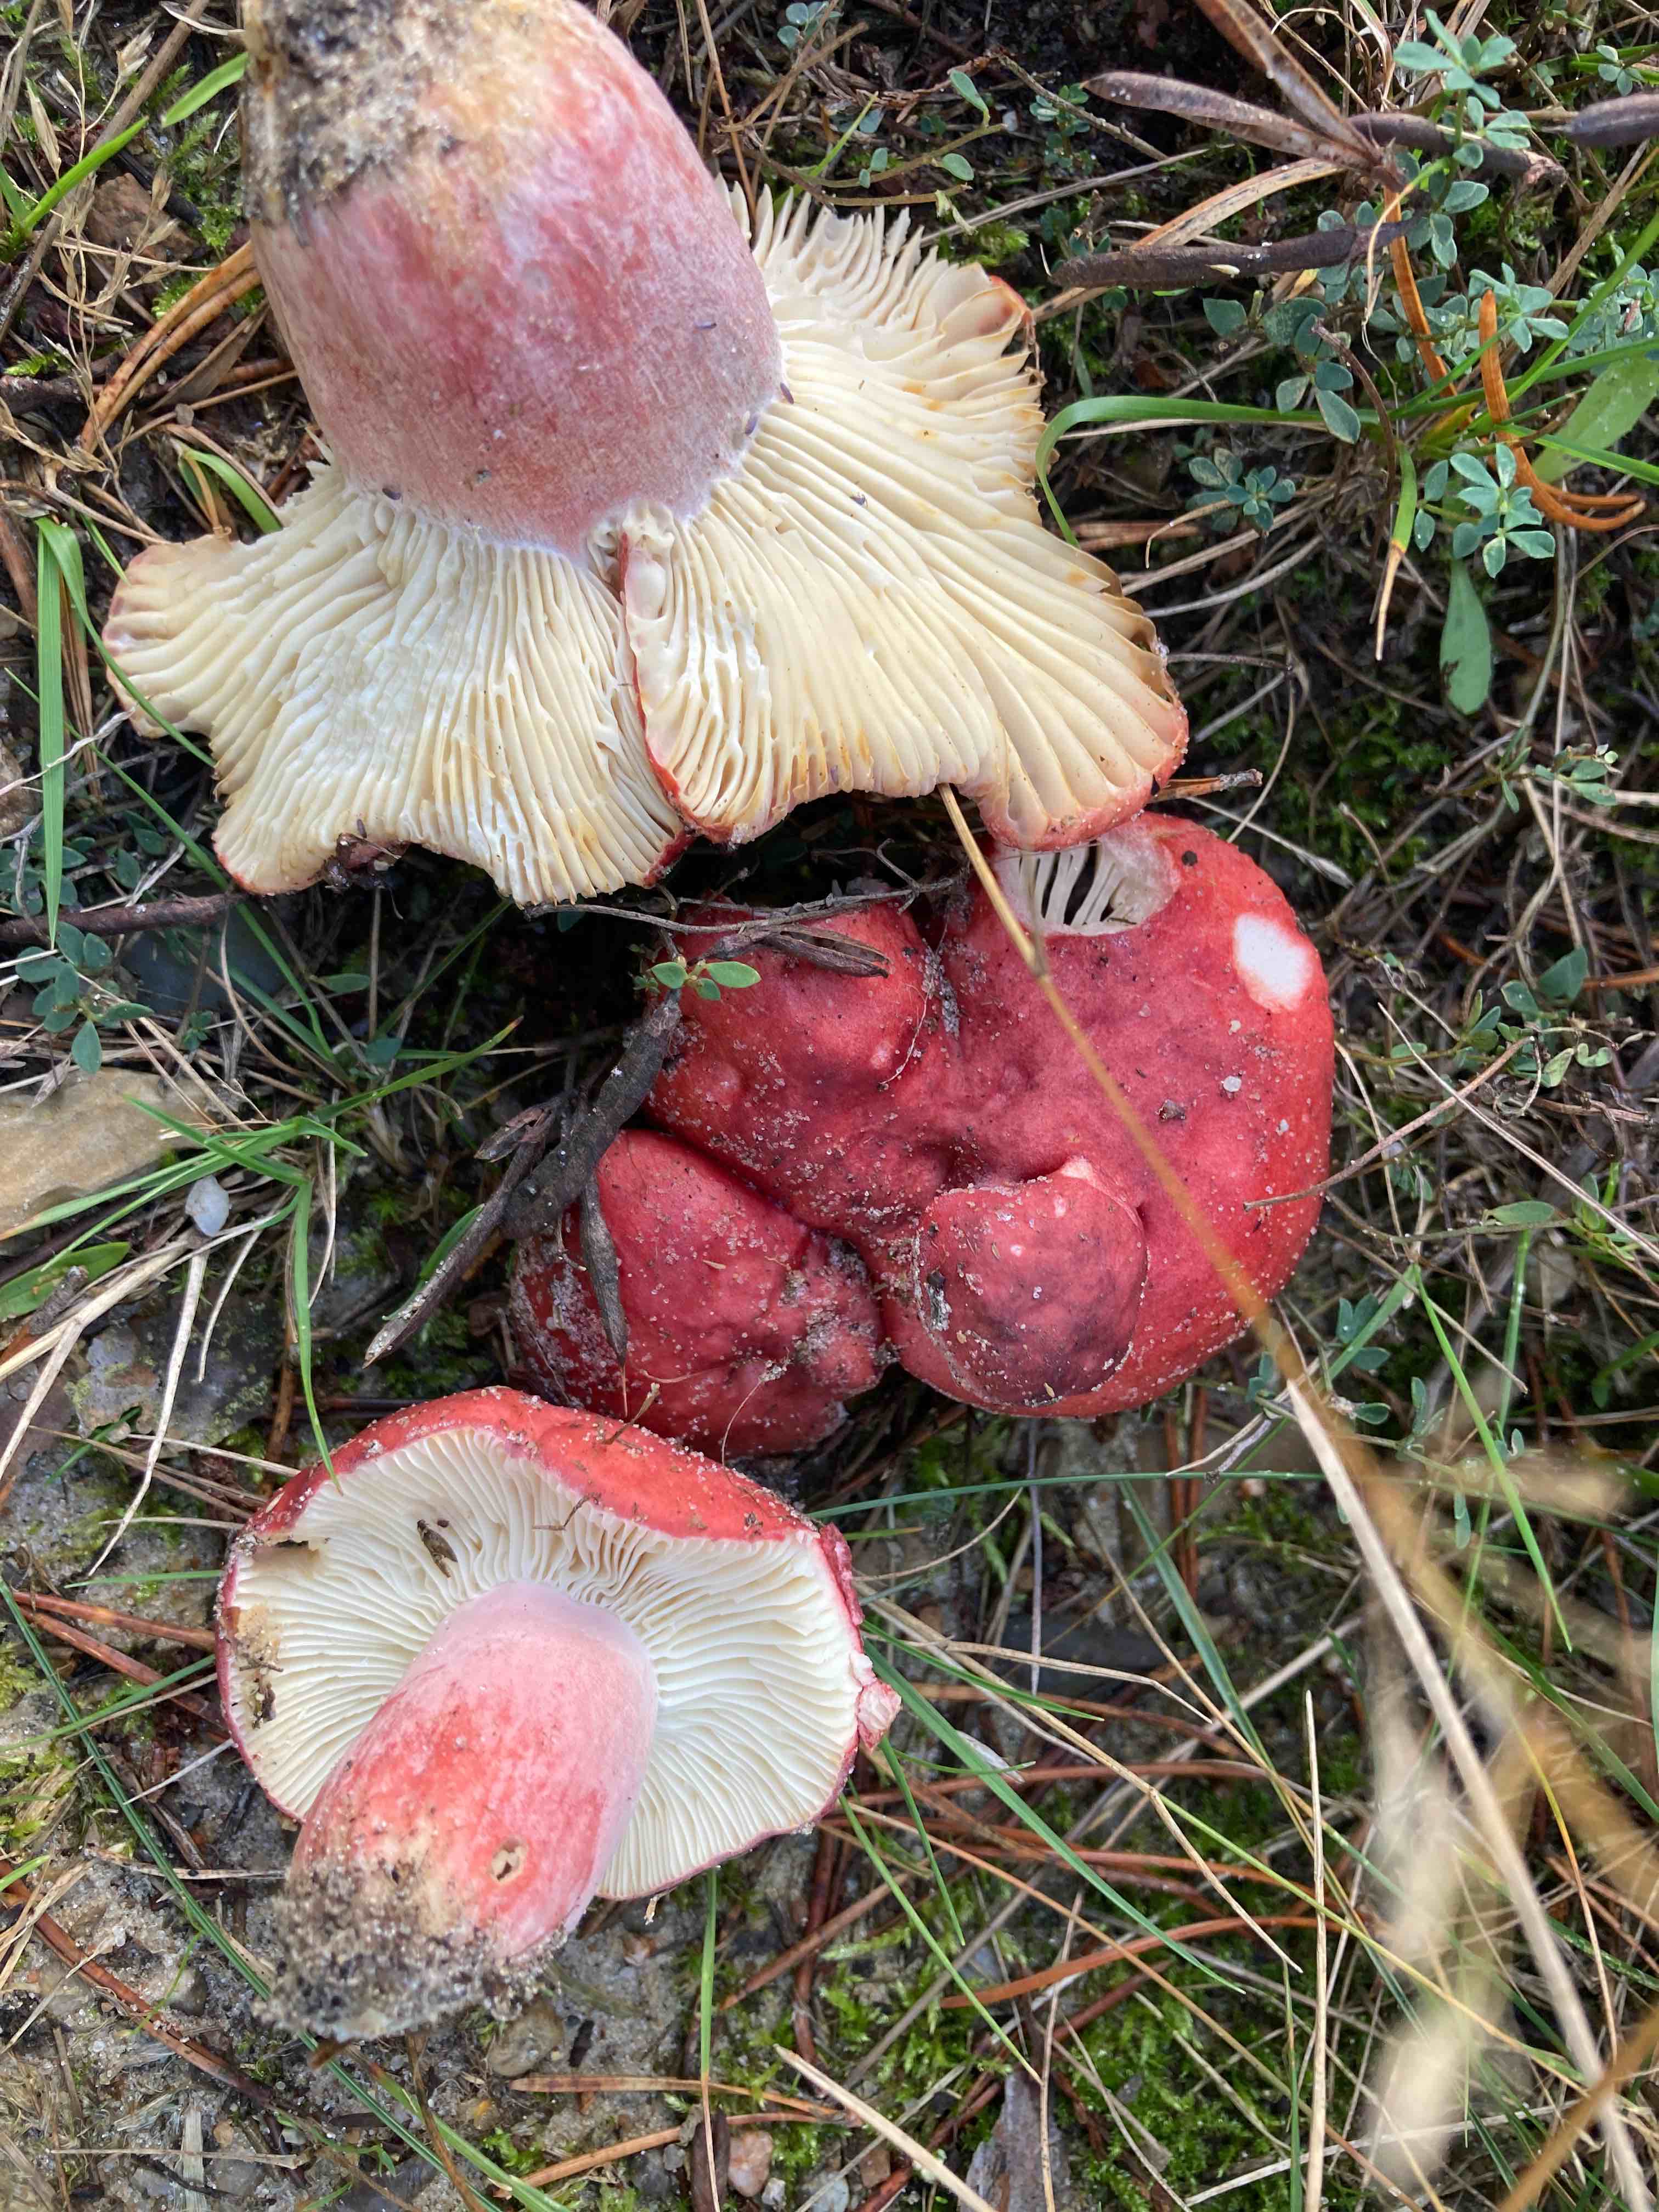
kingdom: Fungi
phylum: Basidiomycota
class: Agaricomycetes
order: Russulales
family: Russulaceae
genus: Russula
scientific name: Russula sanguinea
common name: blodrød skørhat
